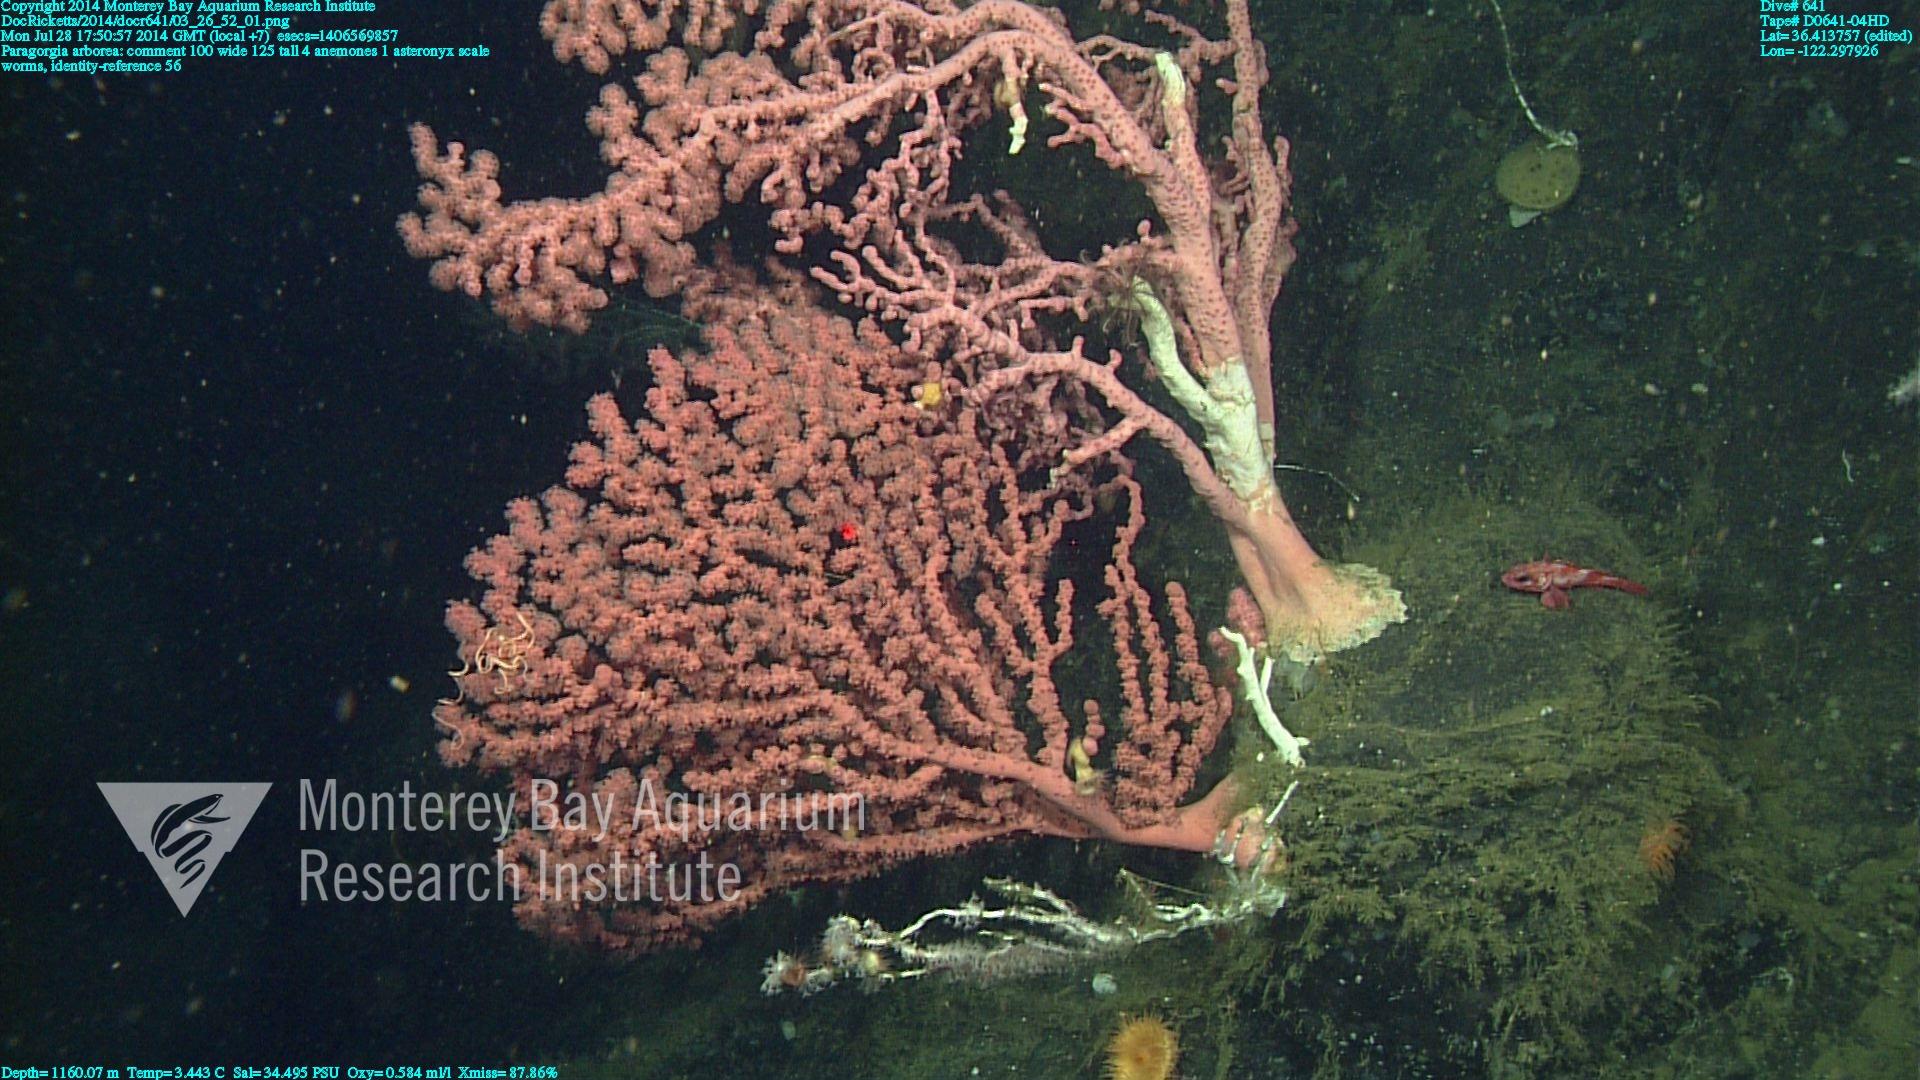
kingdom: Animalia
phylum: Cnidaria
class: Anthozoa
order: Scleralcyonacea
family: Coralliidae
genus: Paragorgia
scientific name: Paragorgia arborea
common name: Bubble gum coral
